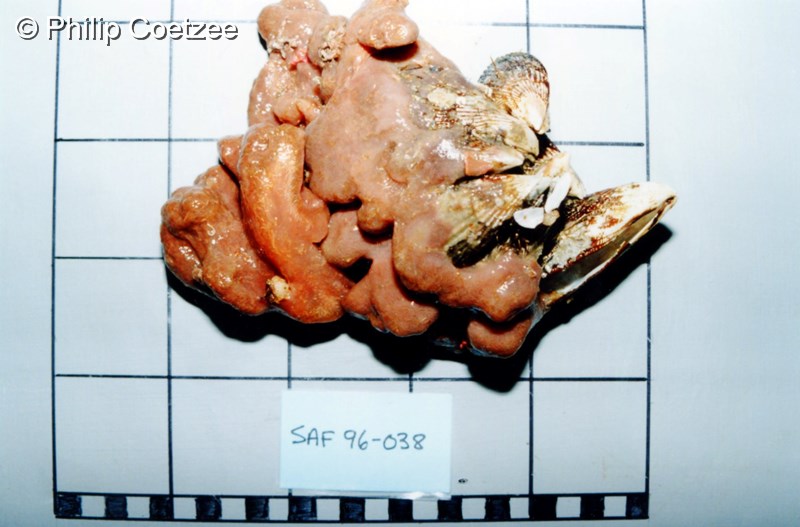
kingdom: Animalia
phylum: Chordata
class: Ascidiacea
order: Aplousobranchia
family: Polyclinidae
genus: Aplidium
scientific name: Aplidium
